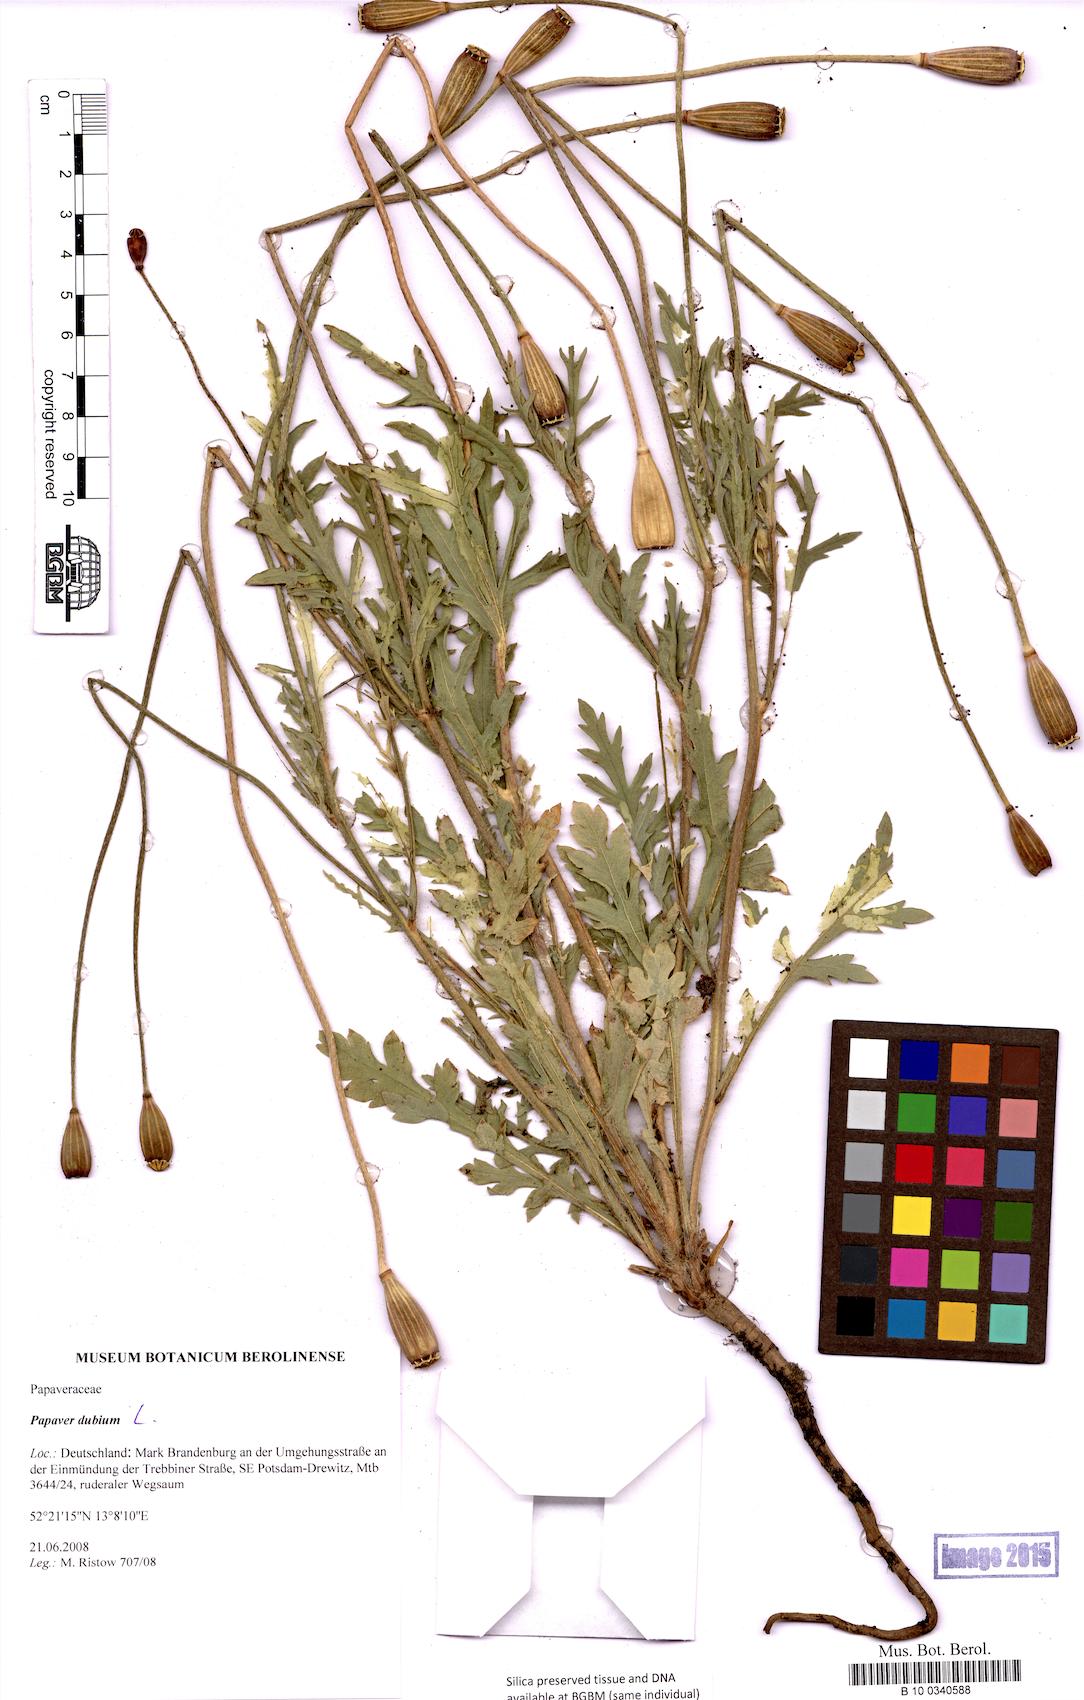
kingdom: Plantae
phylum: Tracheophyta
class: Magnoliopsida
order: Ranunculales
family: Papaveraceae
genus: Papaver
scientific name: Papaver dubium
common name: Long-headed poppy
